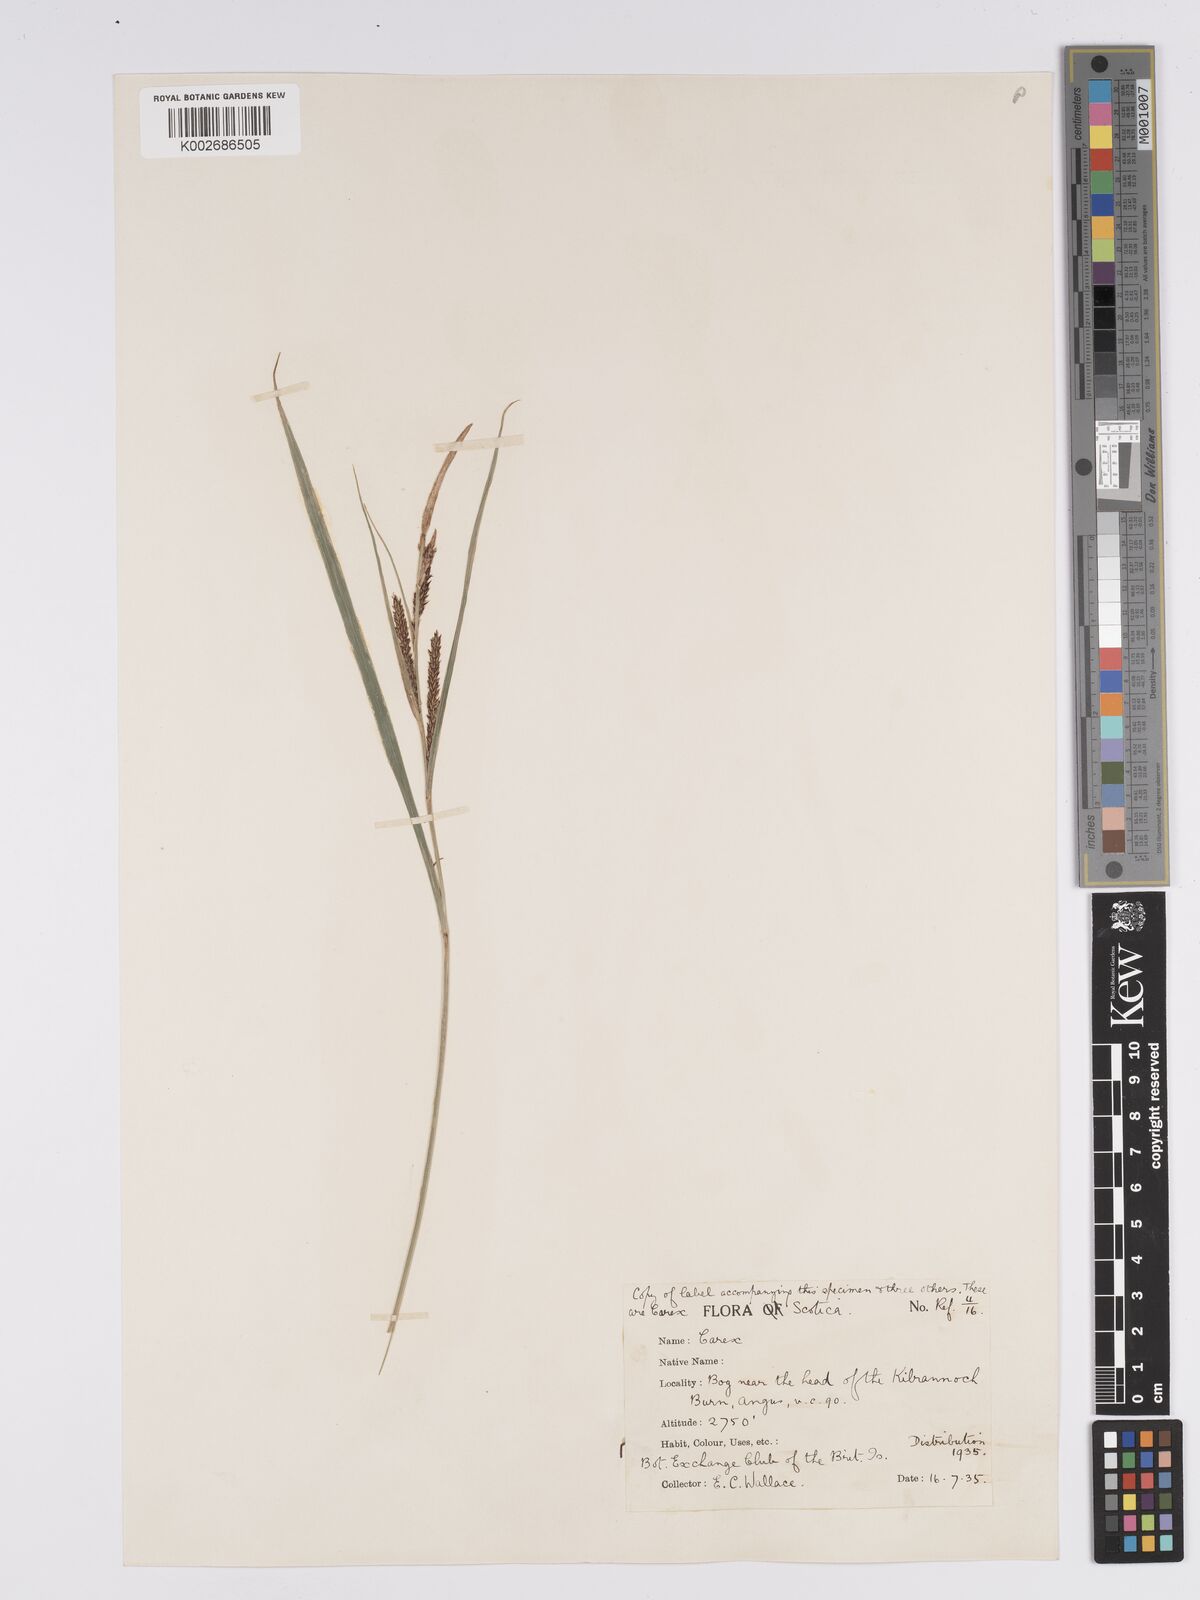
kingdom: Plantae
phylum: Tracheophyta
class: Liliopsida
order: Poales
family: Cyperaceae
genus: Carex
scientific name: Carex aquatilis
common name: Water sedge
